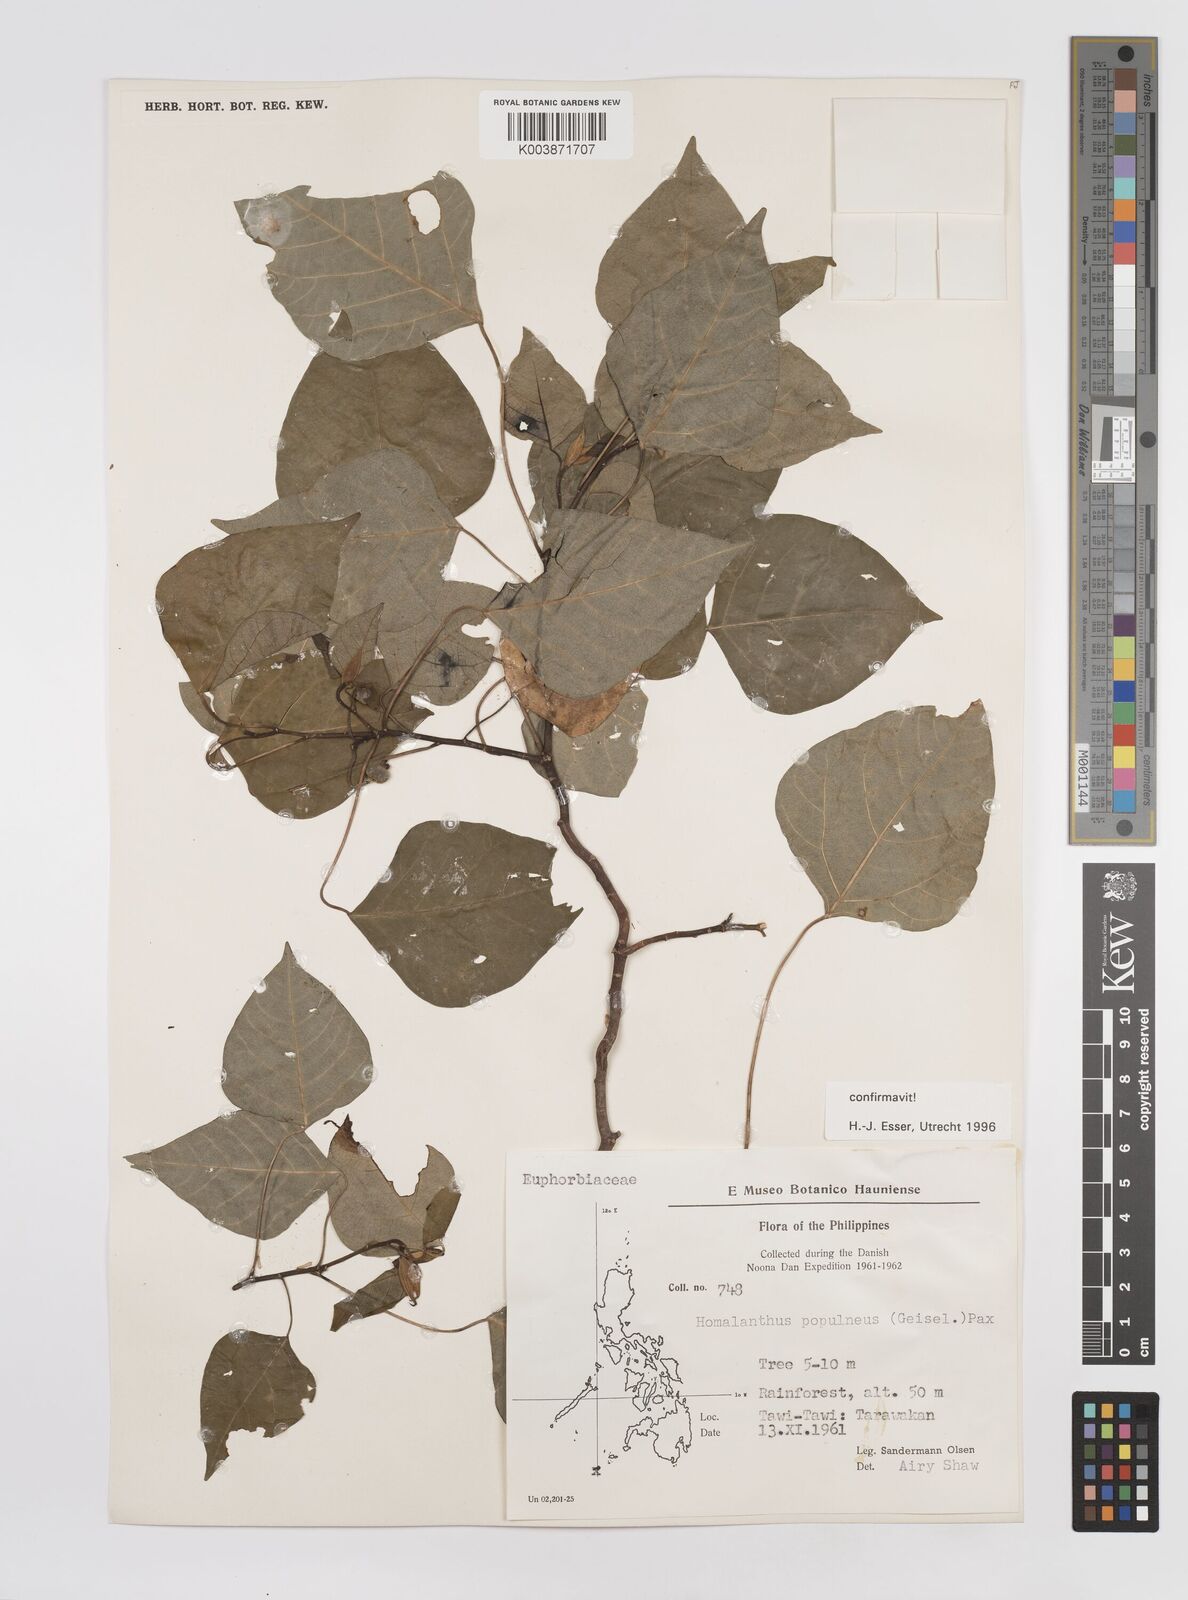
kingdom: Plantae
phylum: Tracheophyta
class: Magnoliopsida
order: Malpighiales
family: Euphorbiaceae
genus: Homalanthus
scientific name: Homalanthus populneus
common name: Spurge
